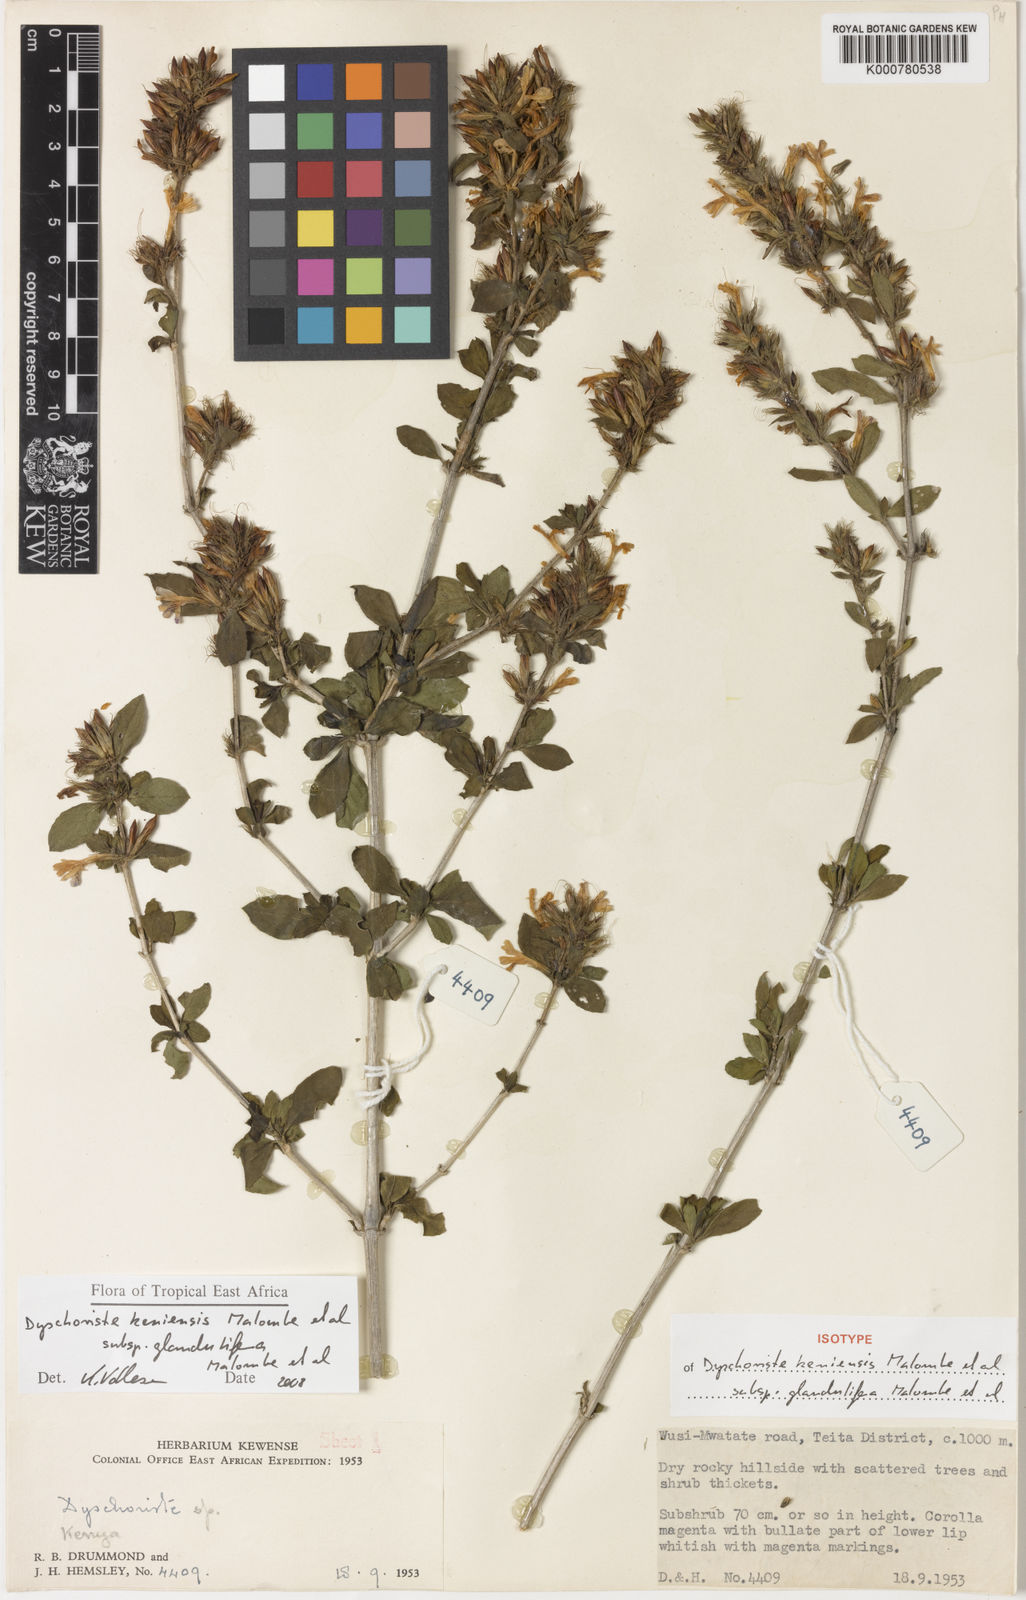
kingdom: Plantae
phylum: Tracheophyta
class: Magnoliopsida
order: Lamiales
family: Acanthaceae
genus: Dyschoriste
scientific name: Dyschoriste
